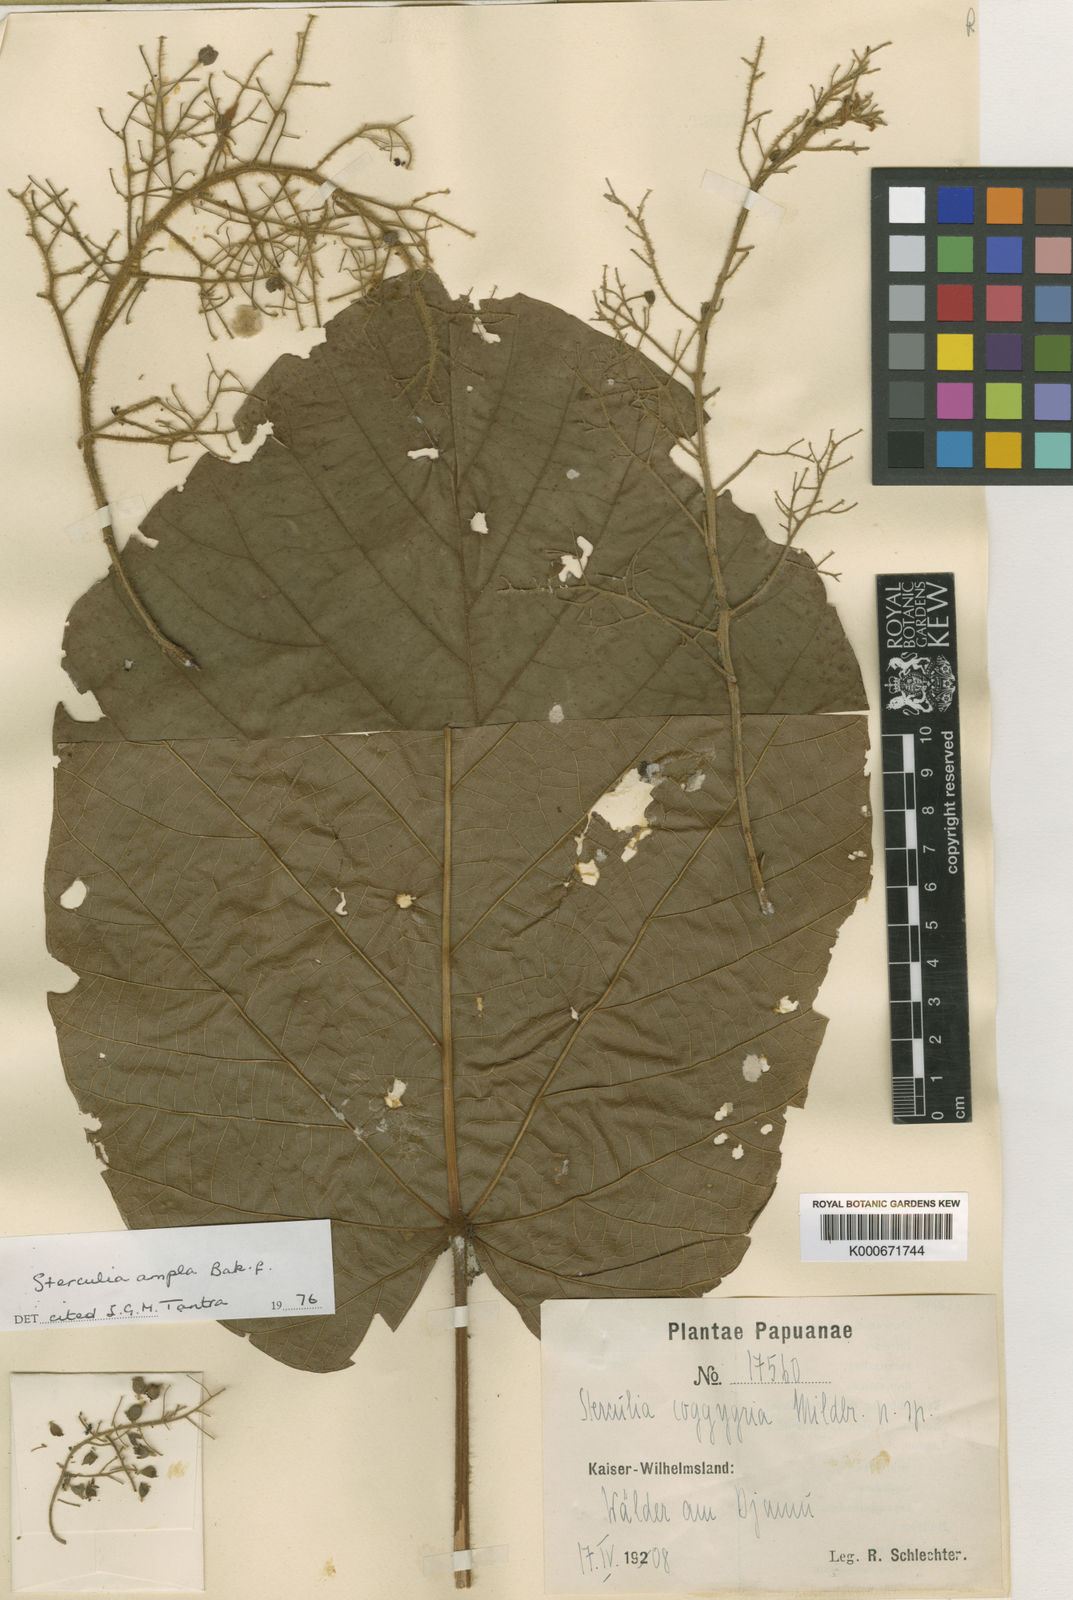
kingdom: Plantae
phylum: Tracheophyta
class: Magnoliopsida
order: Malvales
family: Malvaceae
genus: Sterculia
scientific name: Sterculia ampla
